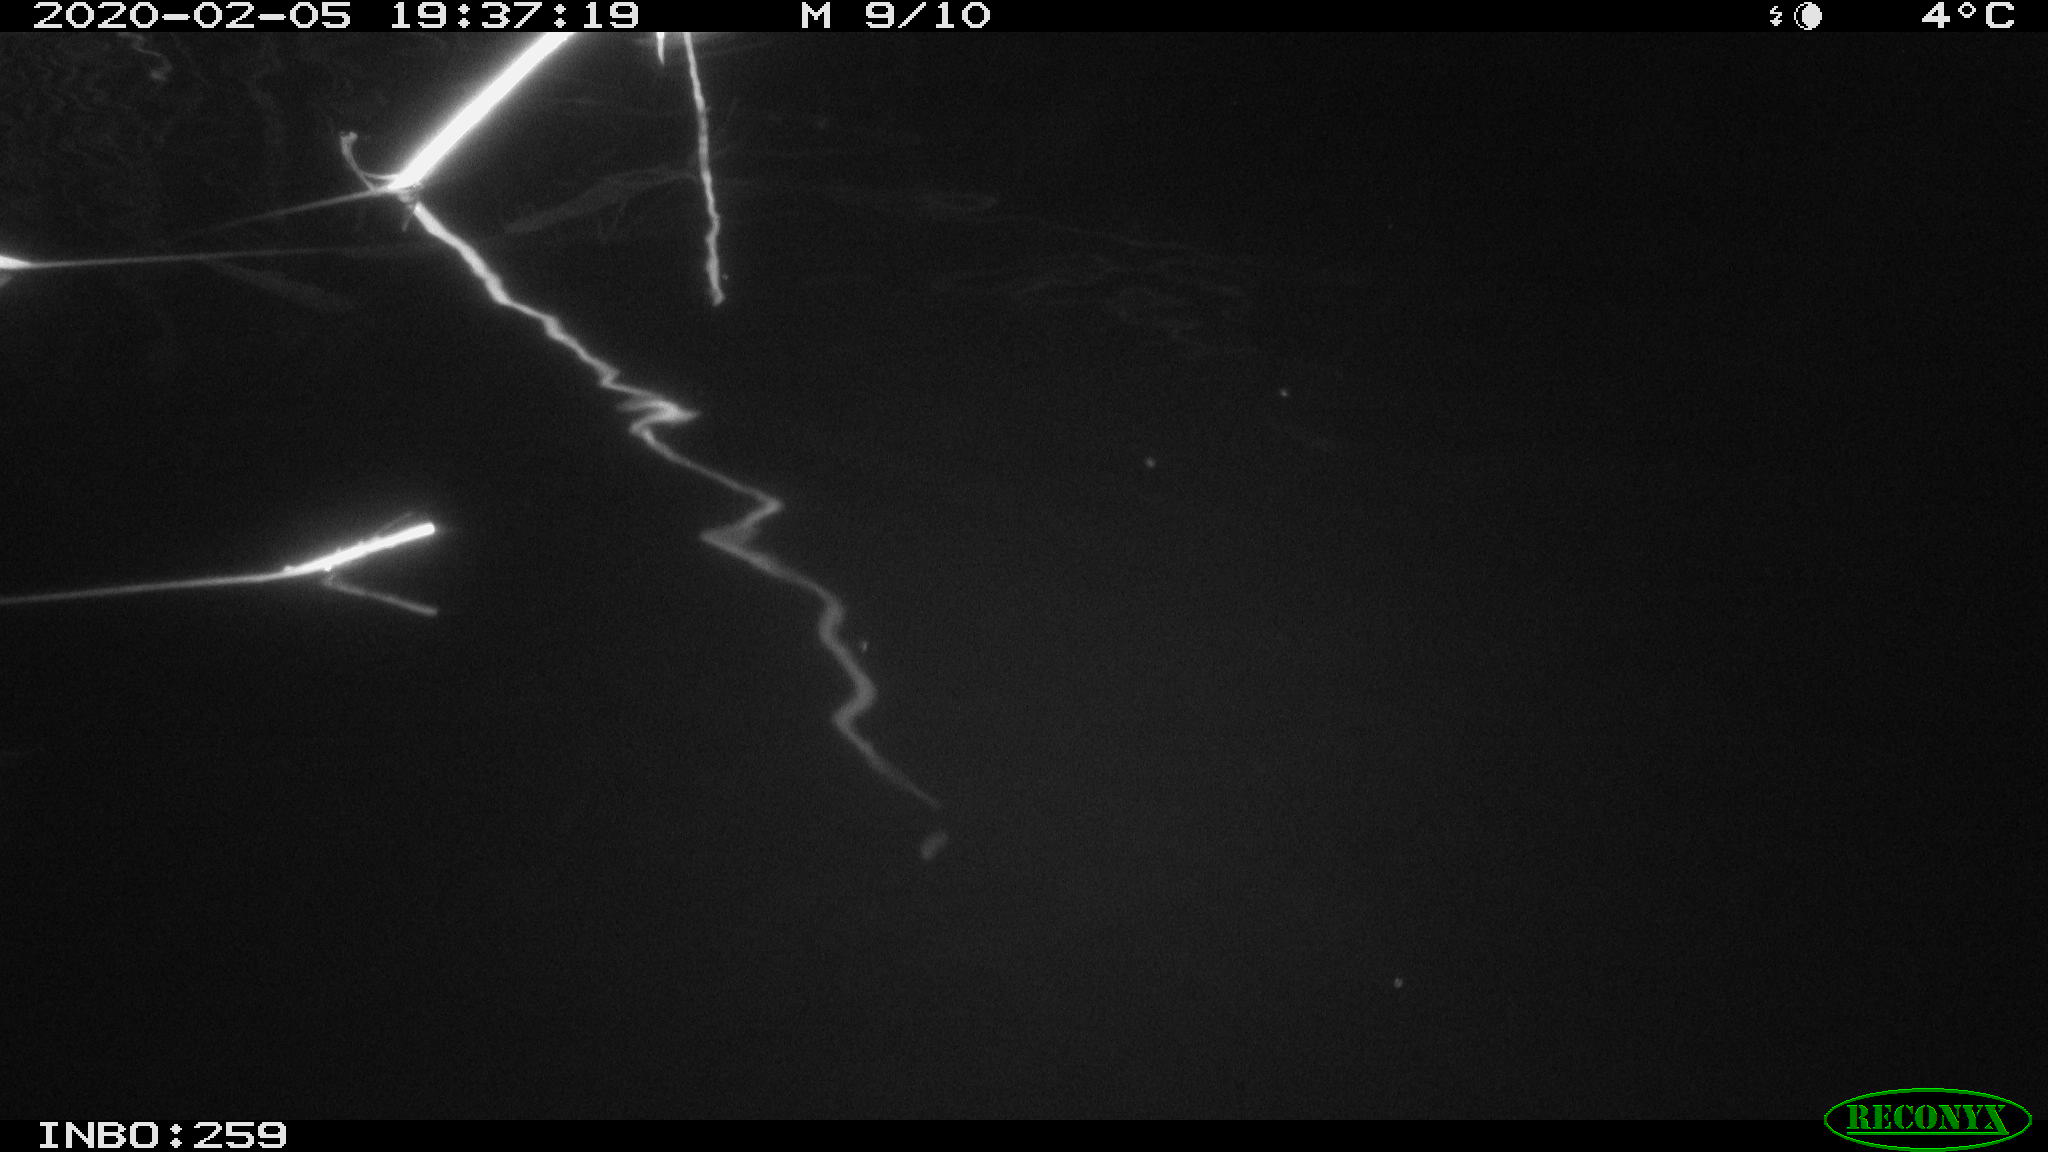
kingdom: Animalia
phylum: Chordata
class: Mammalia
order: Rodentia
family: Cricetidae
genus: Ondatra
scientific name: Ondatra zibethicus
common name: Muskrat
